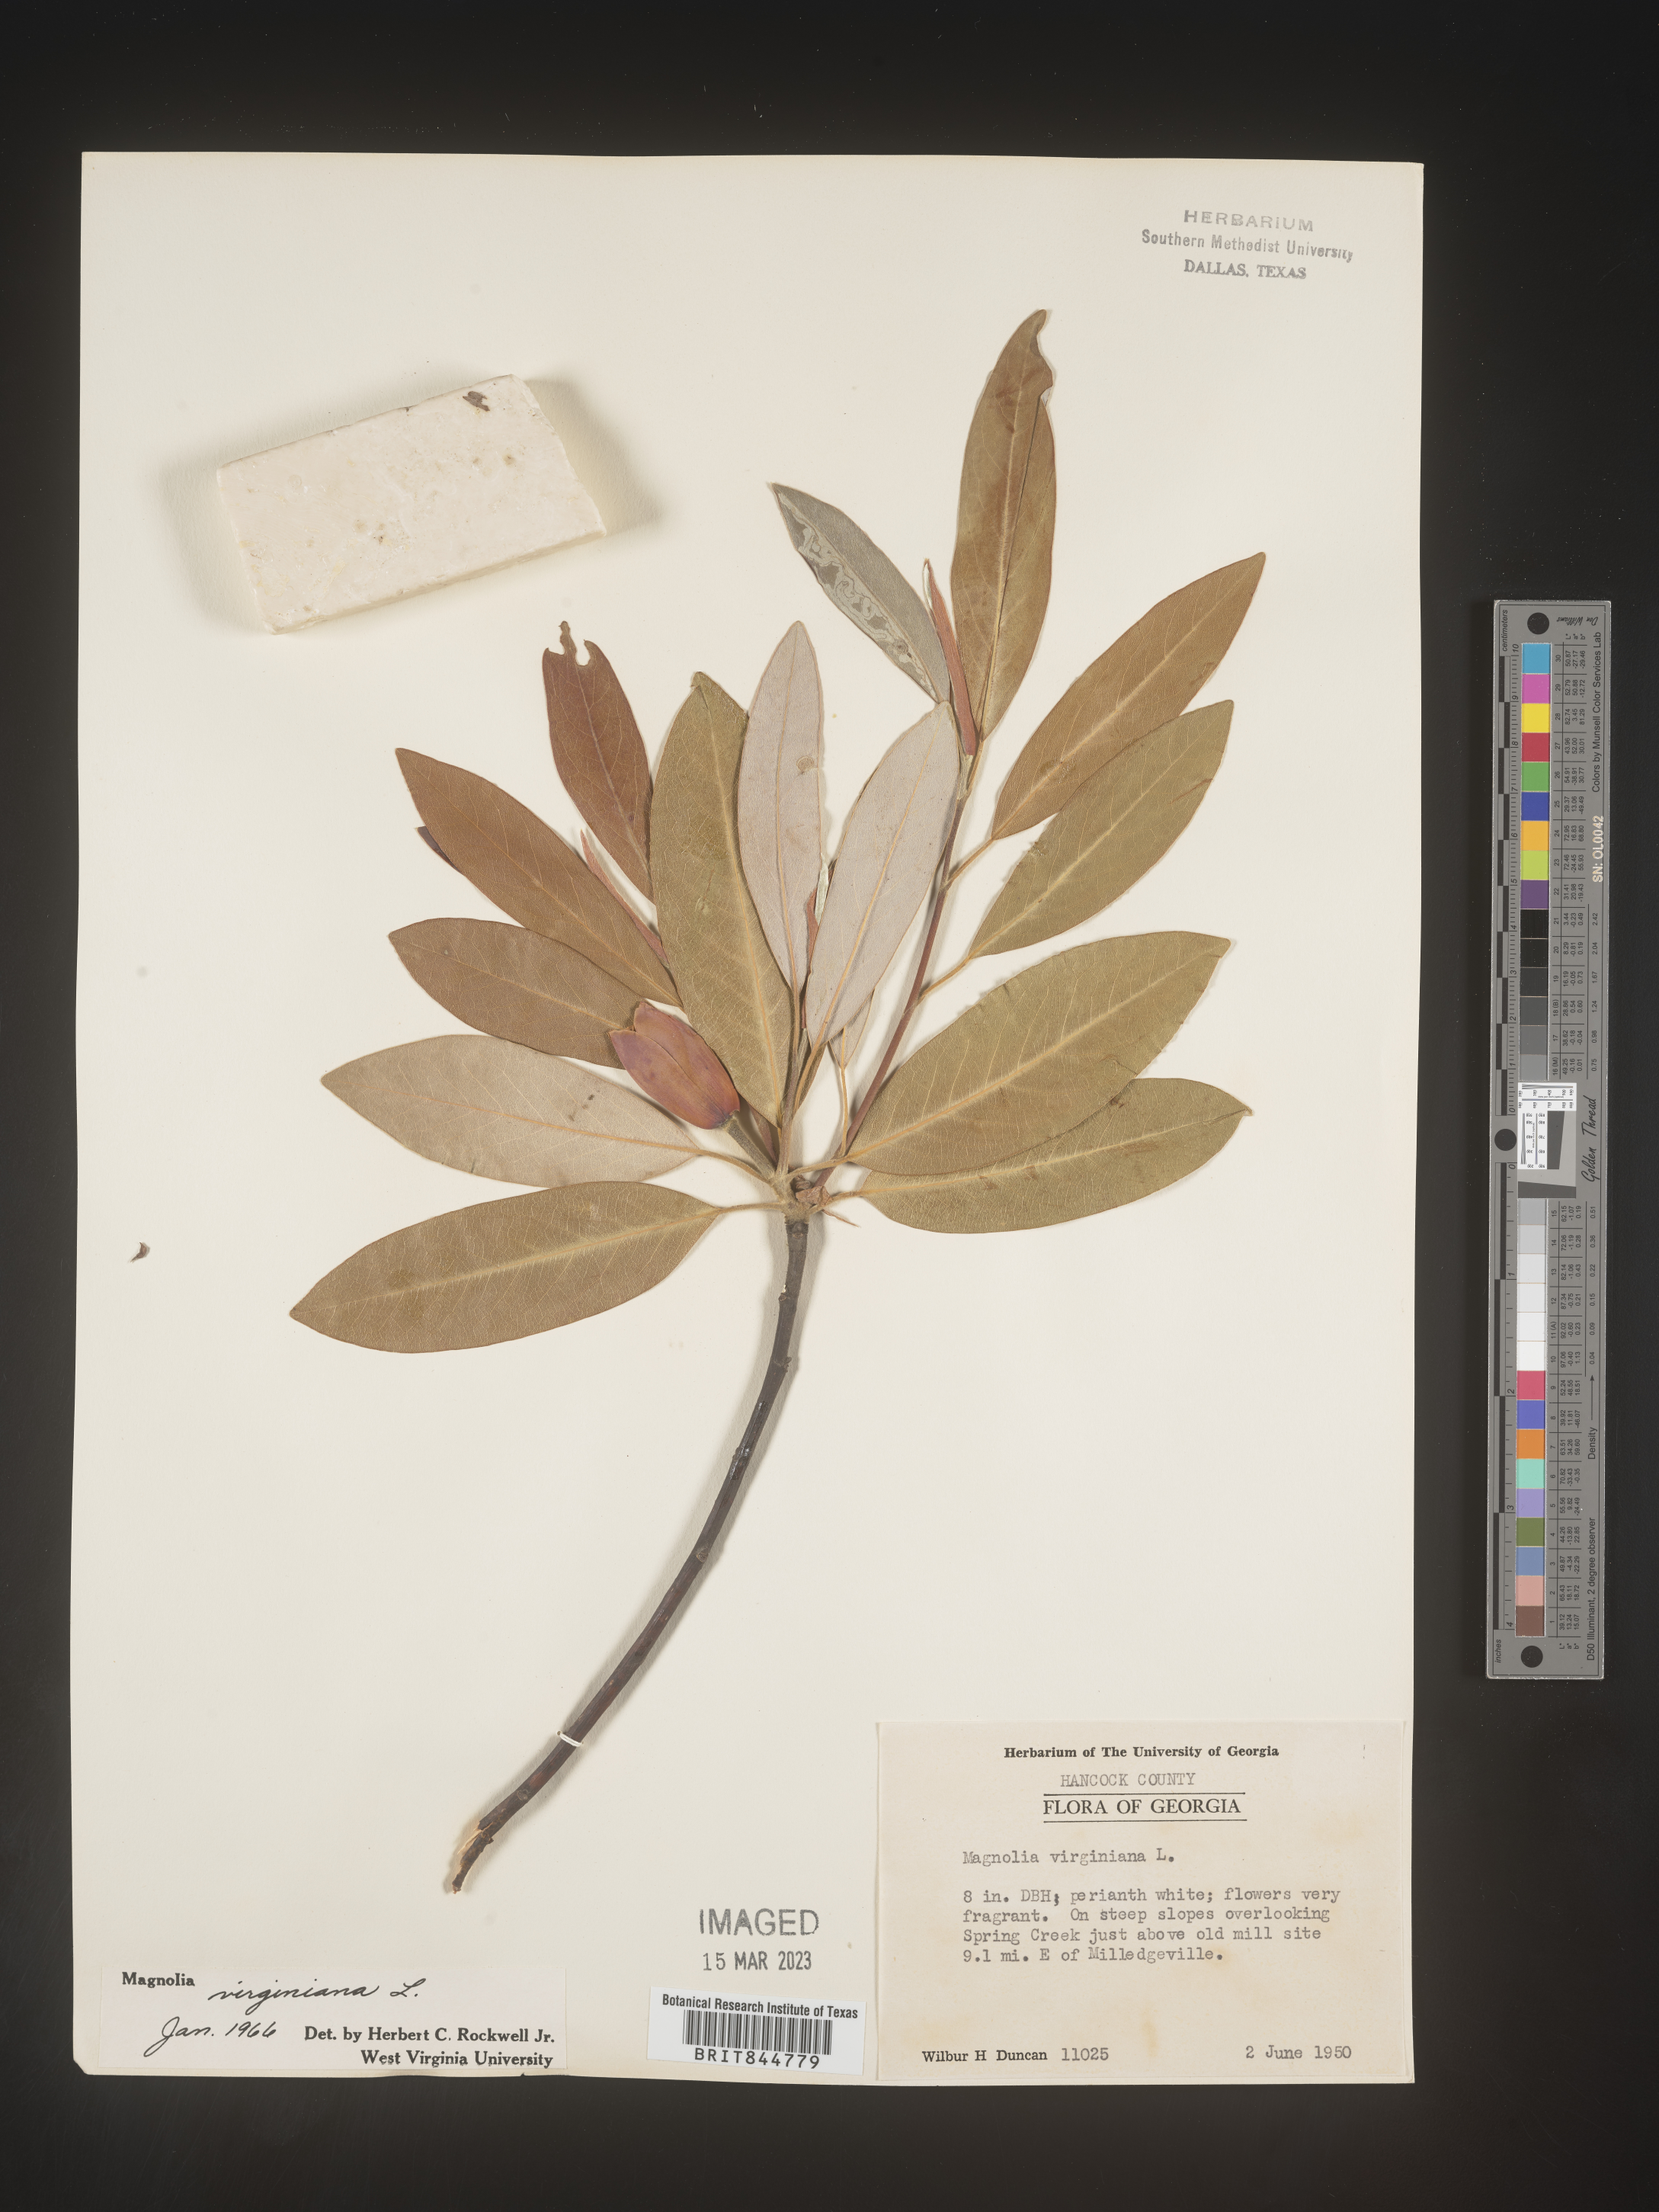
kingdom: Plantae
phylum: Tracheophyta
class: Magnoliopsida
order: Magnoliales
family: Magnoliaceae
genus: Magnolia
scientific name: Magnolia virginiana
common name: Swamp bay
